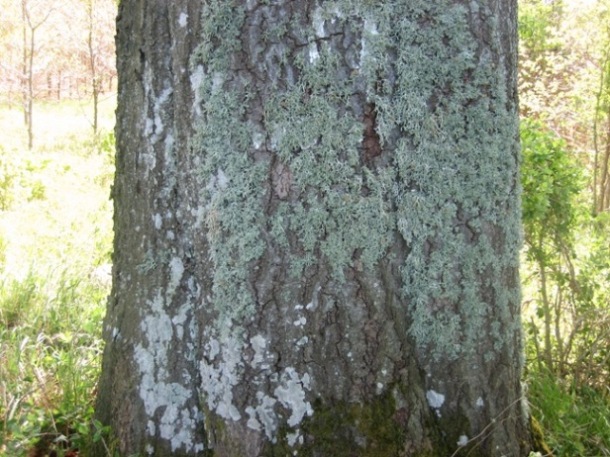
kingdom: Fungi
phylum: Ascomycota
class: Lecanoromycetes
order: Lecanorales
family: Parmeliaceae
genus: Evernia
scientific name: Evernia prunastri
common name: almindelig slåenlav
